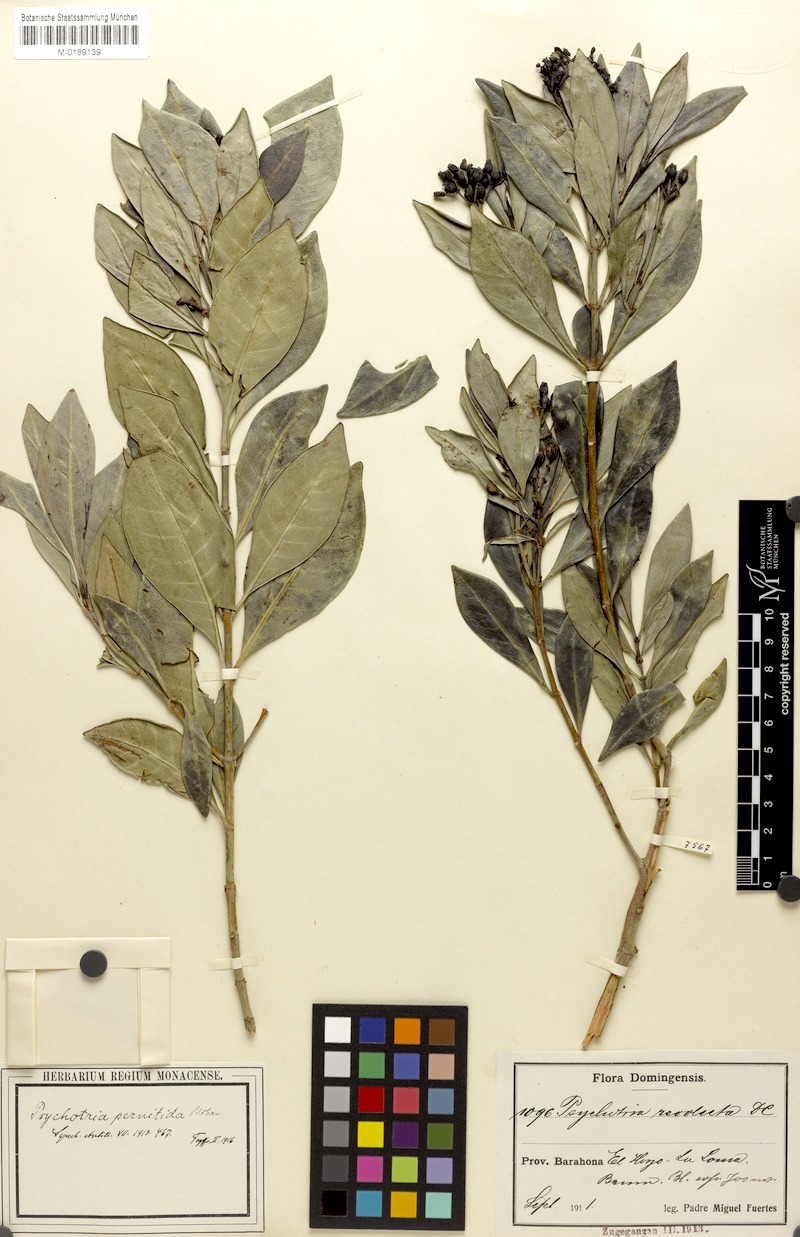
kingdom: Plantae
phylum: Tracheophyta
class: Magnoliopsida
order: Gentianales
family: Rubiaceae
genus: Psychotria
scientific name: Psychotria pernitida
